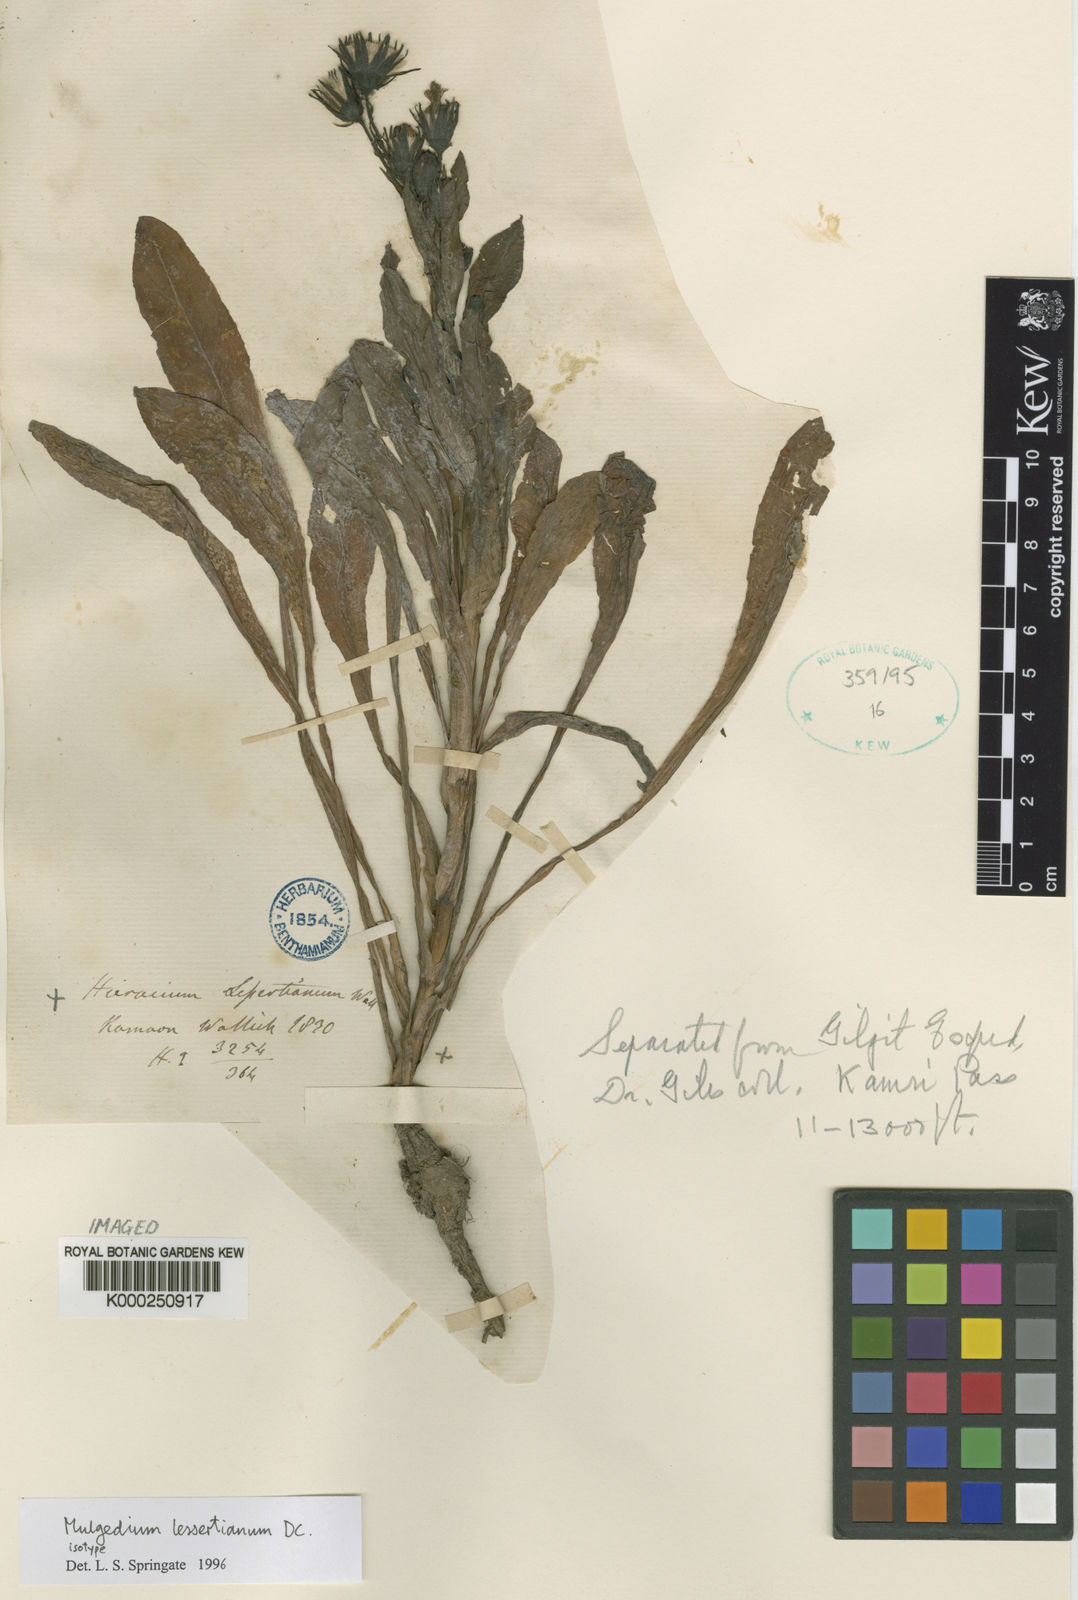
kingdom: Plantae
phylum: Tracheophyta
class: Magnoliopsida
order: Asterales
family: Asteraceae
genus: Melanoseris
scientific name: Melanoseris lessertiana
